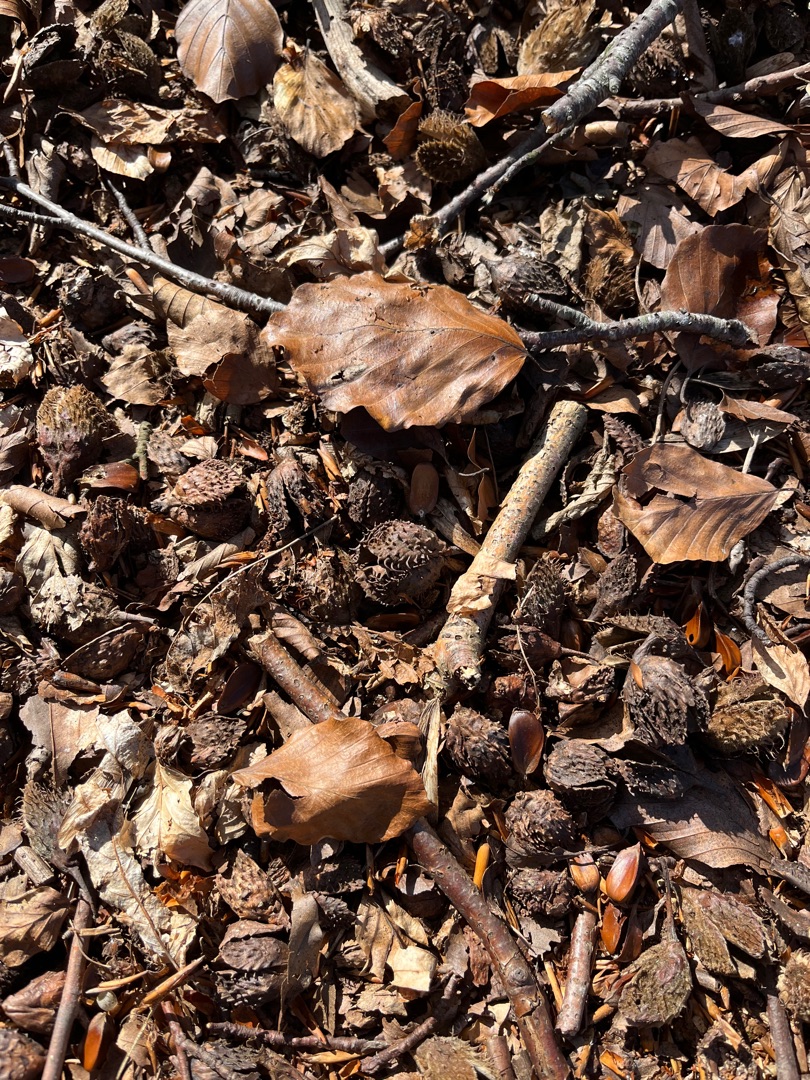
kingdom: Plantae
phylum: Tracheophyta
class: Magnoliopsida
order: Fagales
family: Fagaceae
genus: Fagus
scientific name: Fagus sylvatica
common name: Bøg
